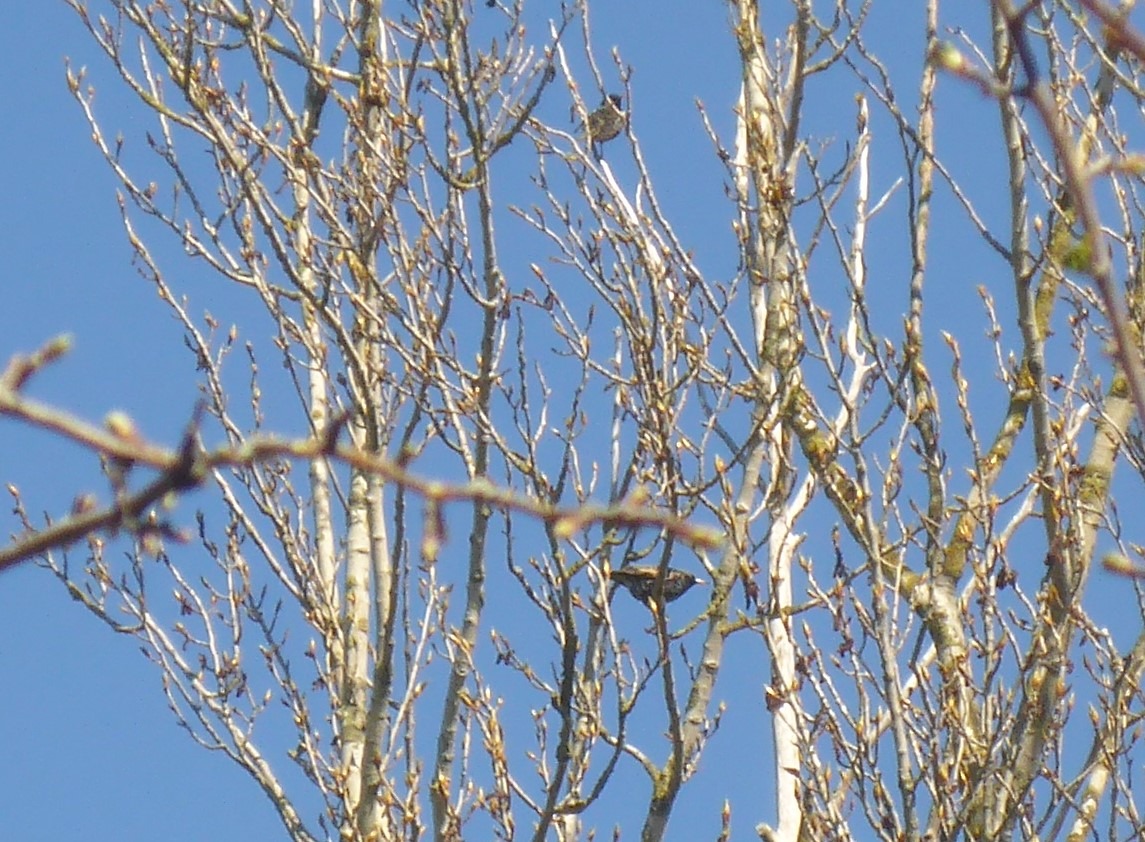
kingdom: Animalia
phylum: Chordata
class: Aves
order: Passeriformes
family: Sturnidae
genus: Sturnus
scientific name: Sturnus vulgaris
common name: Stær
